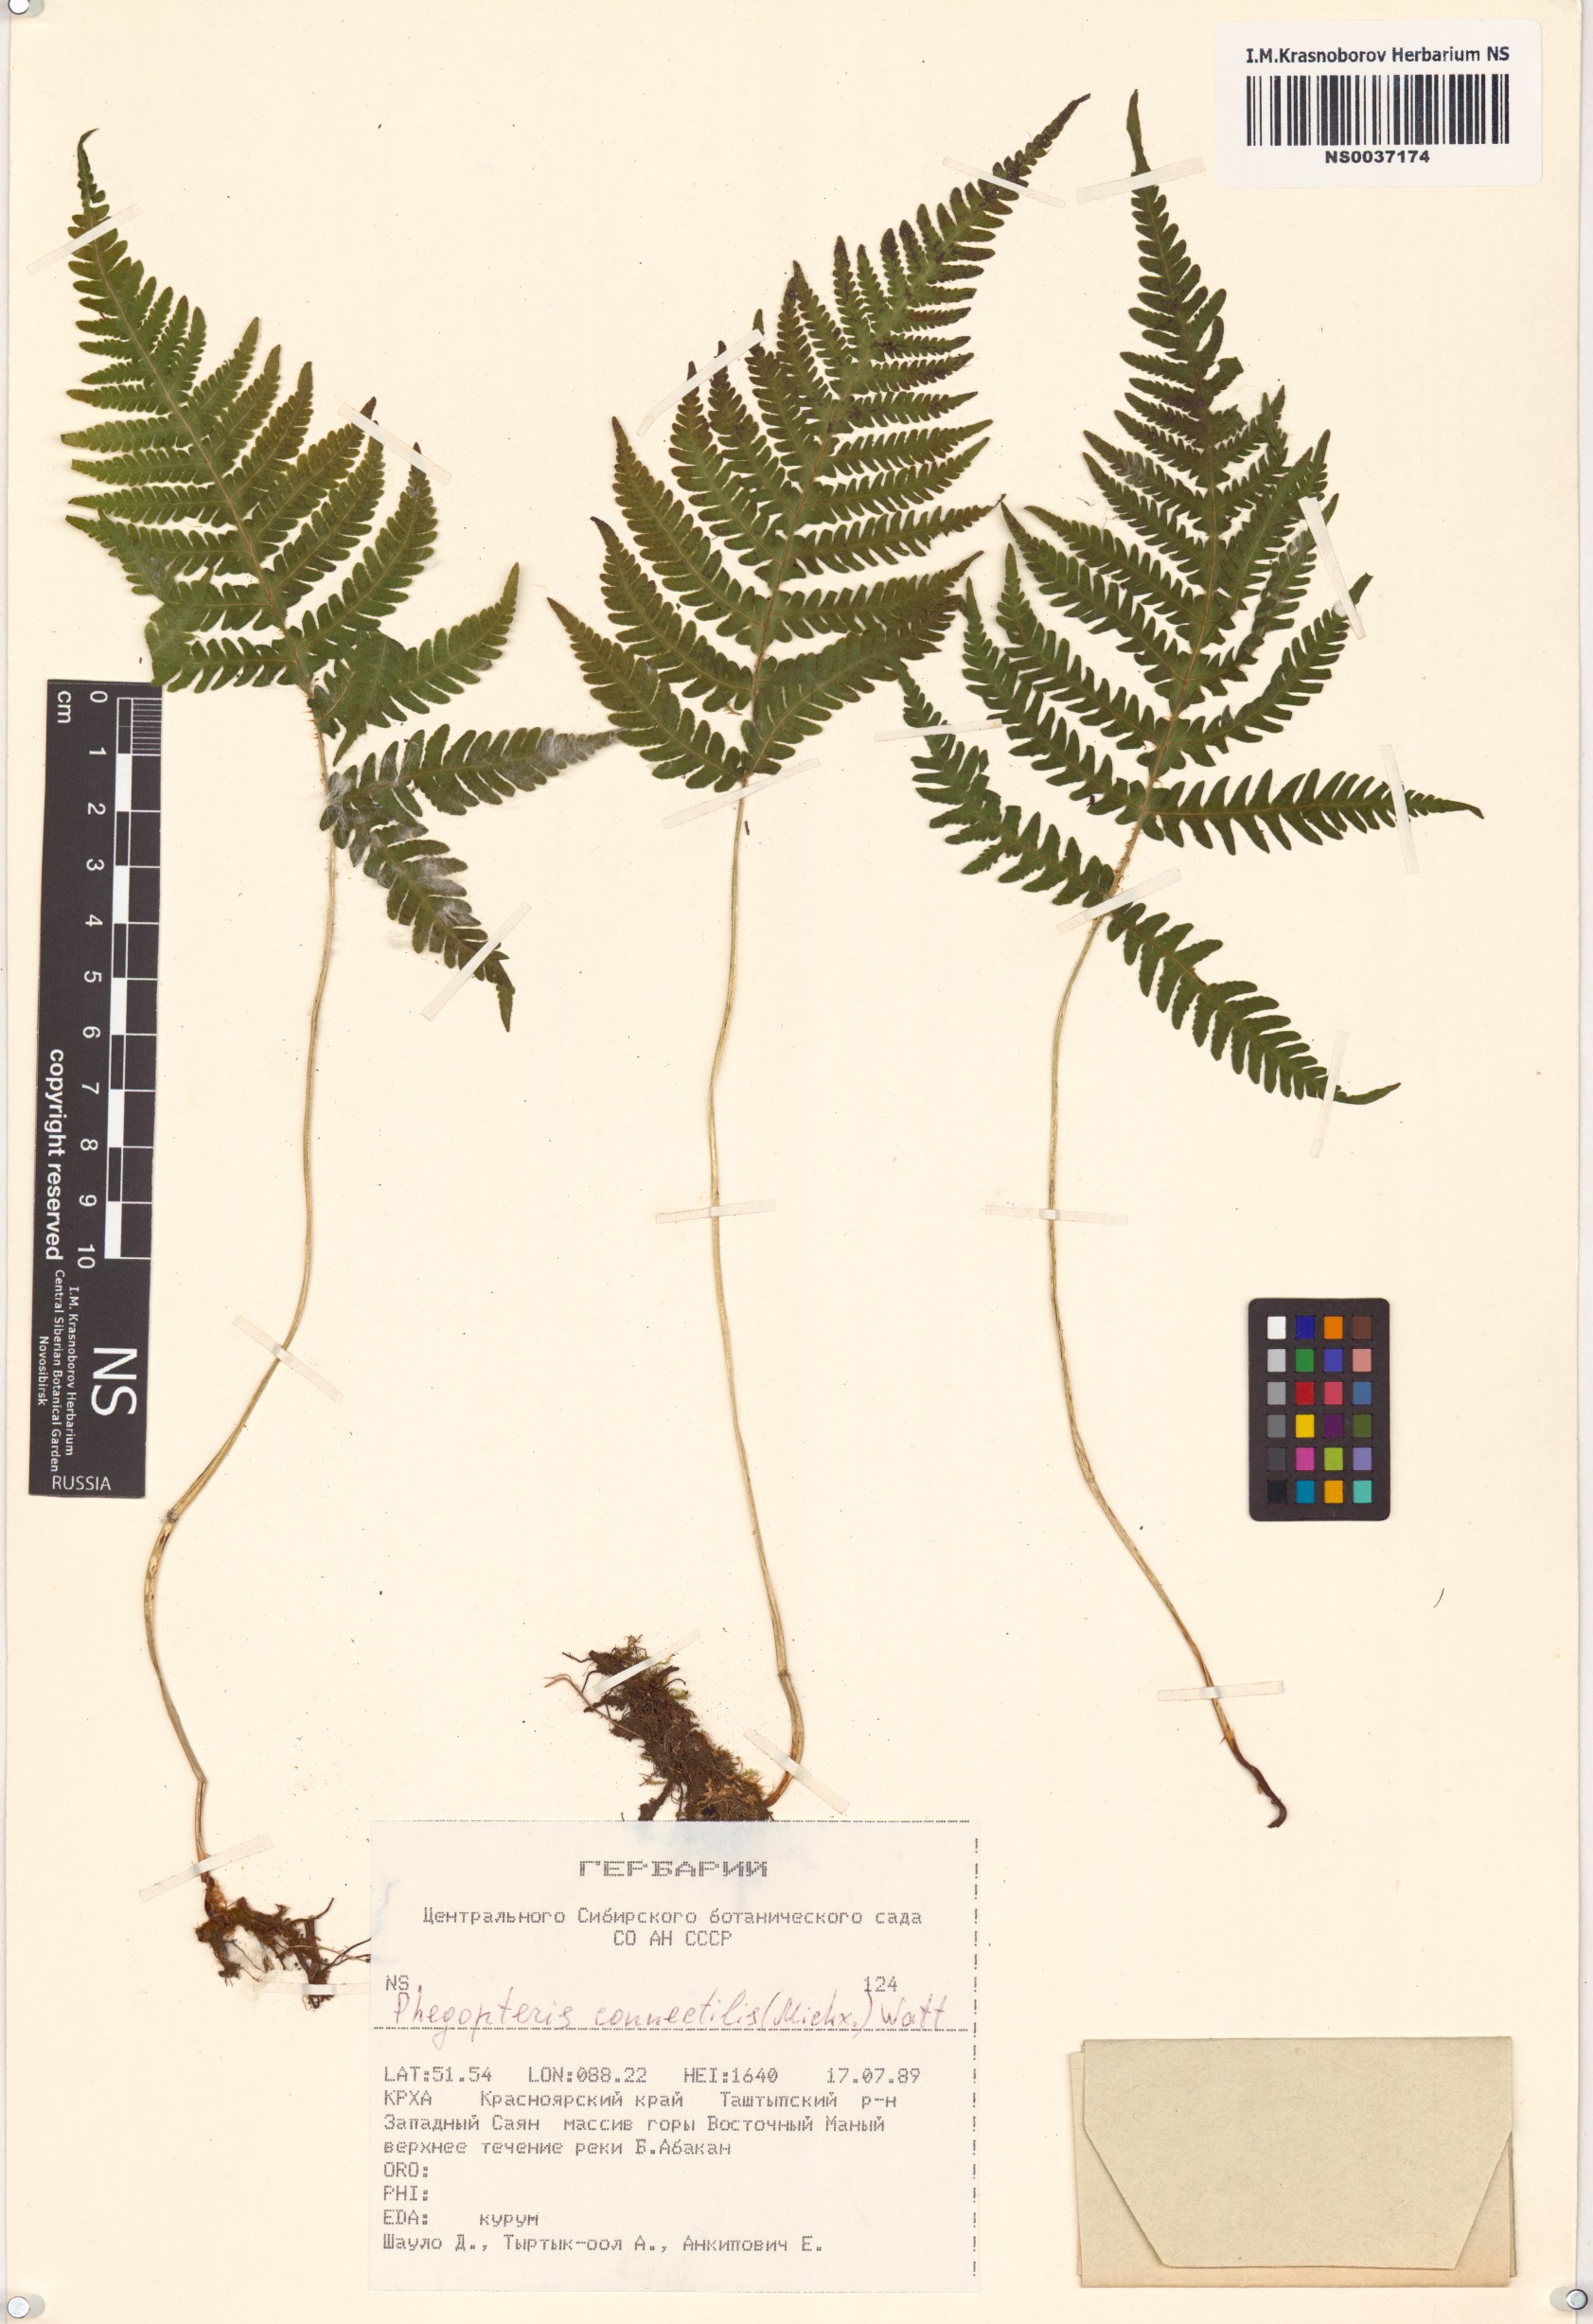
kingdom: Plantae
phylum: Tracheophyta
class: Polypodiopsida
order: Polypodiales
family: Thelypteridaceae
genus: Phegopteris
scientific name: Phegopteris connectilis
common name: Beech fern
